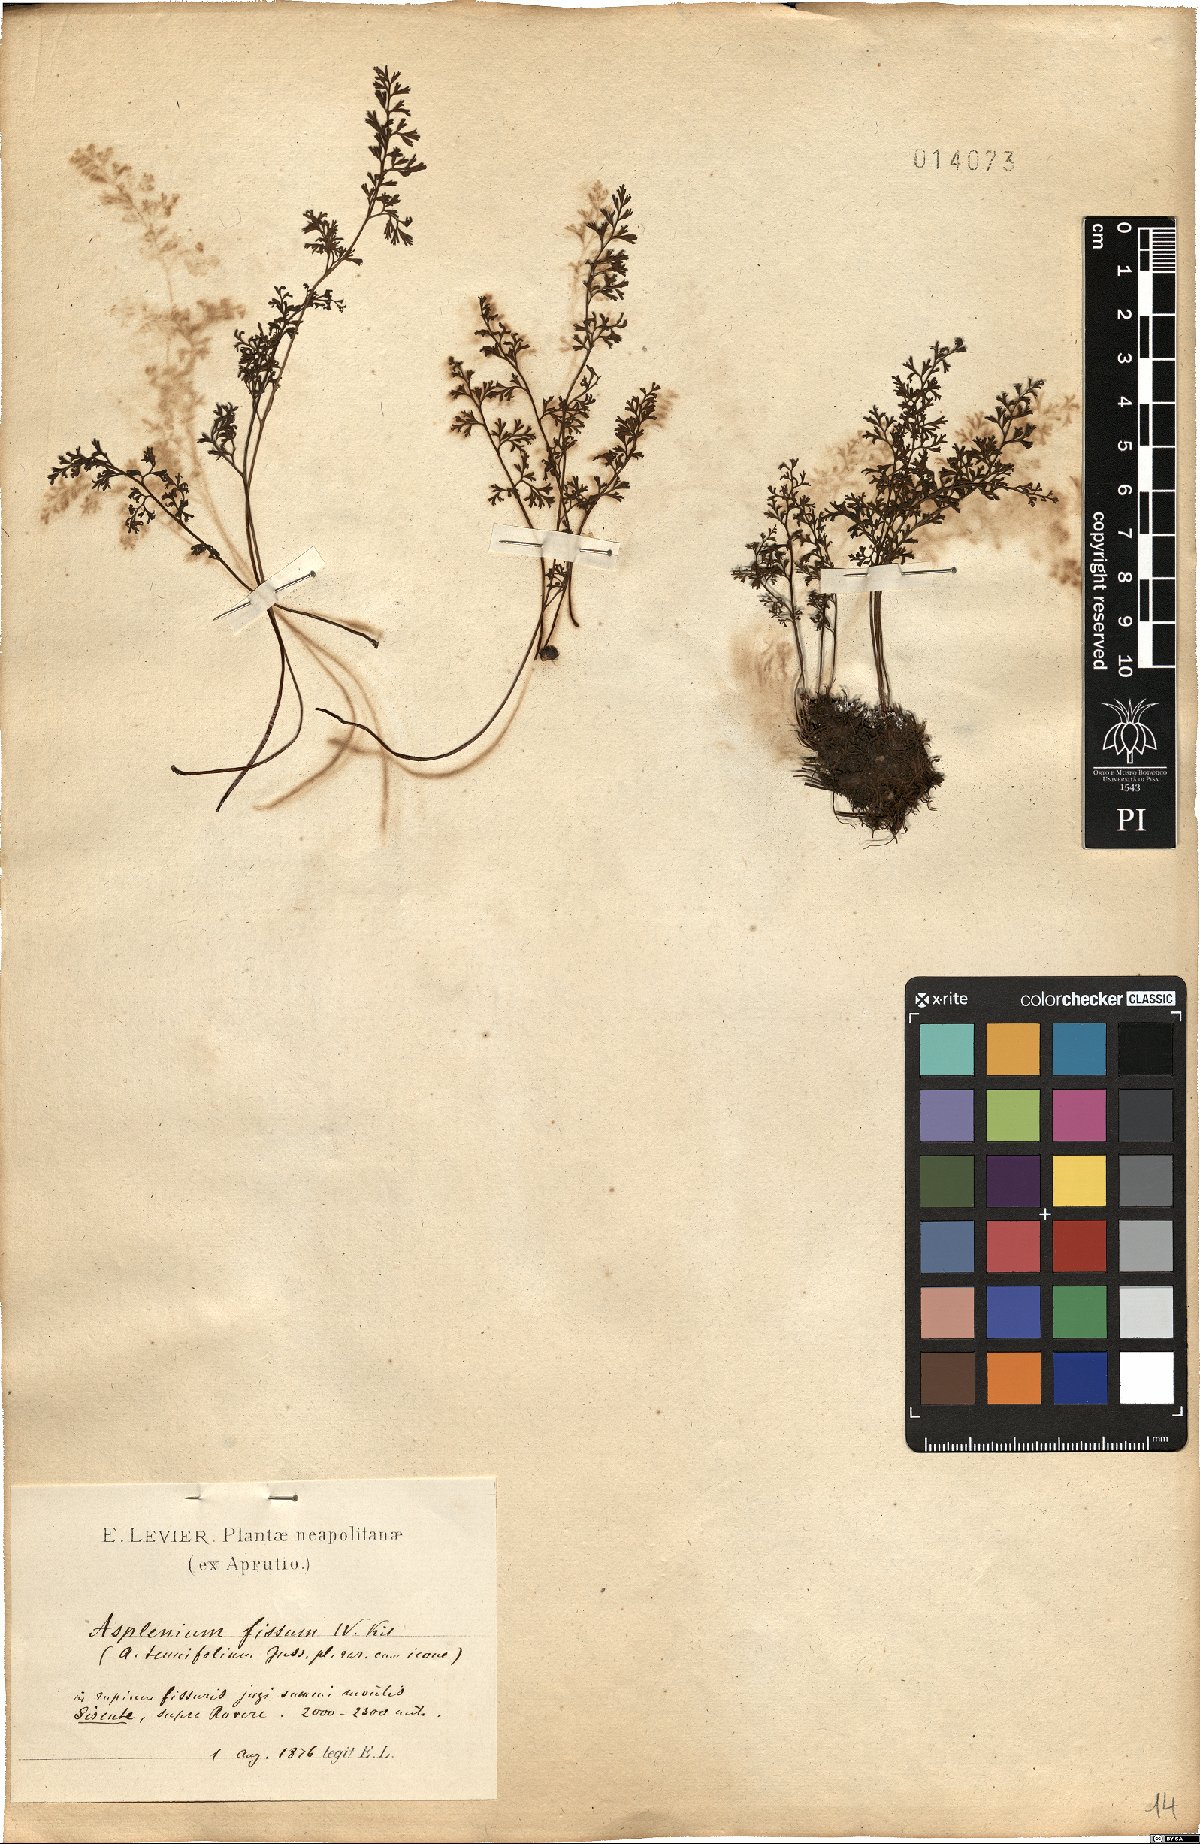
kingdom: Plantae
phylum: Tracheophyta
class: Polypodiopsida
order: Polypodiales
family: Aspleniaceae
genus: Asplenium
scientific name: Asplenium fissum
